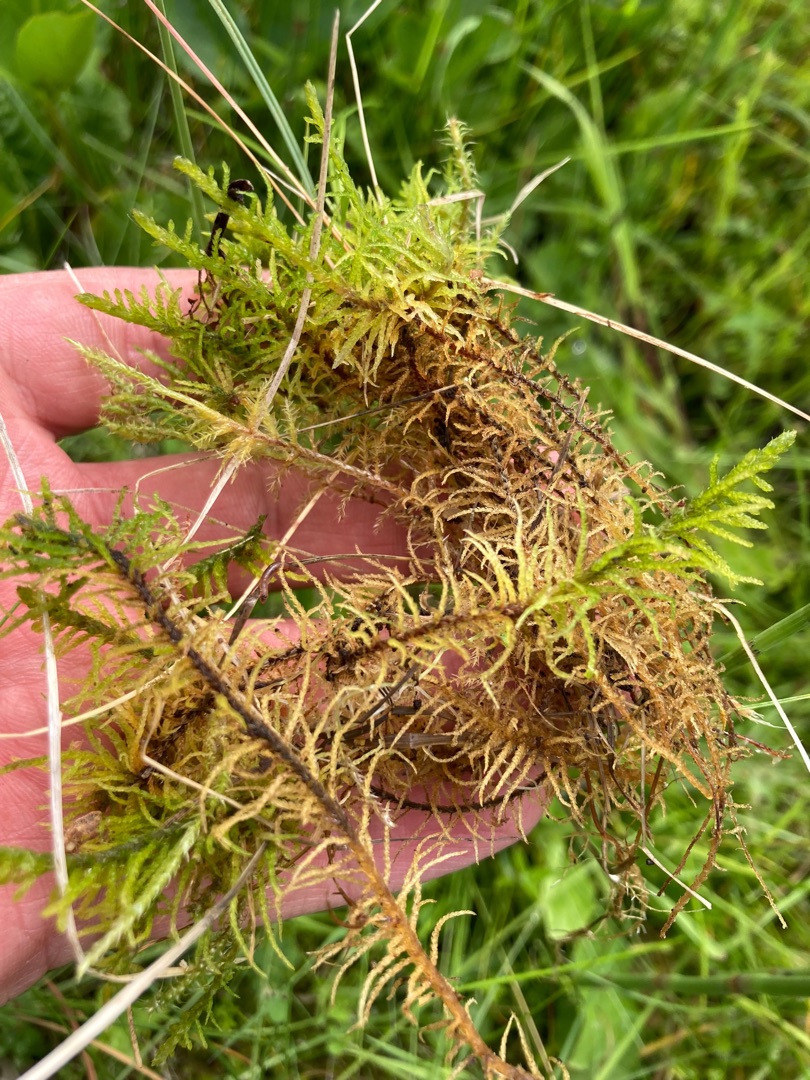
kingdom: Plantae
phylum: Bryophyta
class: Bryopsida
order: Hypnales
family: Helodiaceae
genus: Helodium
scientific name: Helodium blandowii
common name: Kær-gyldenmos
